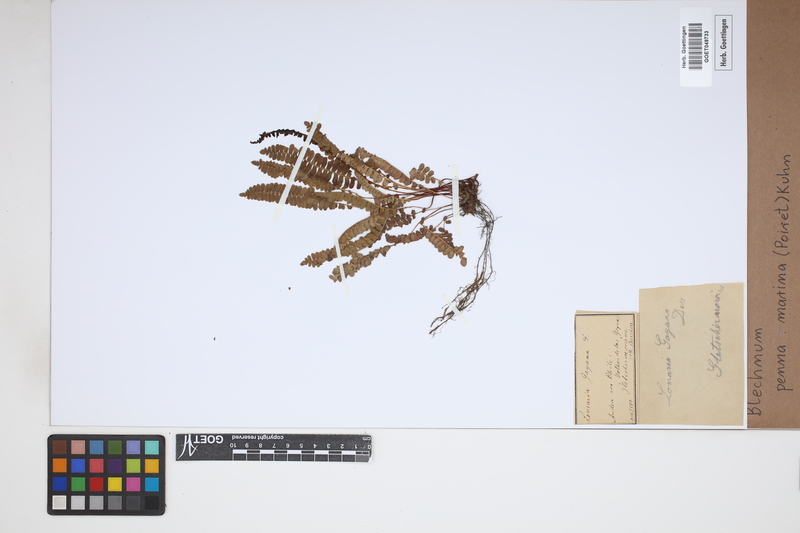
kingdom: Plantae
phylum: Tracheophyta
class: Polypodiopsida
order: Polypodiales
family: Blechnaceae
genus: Austroblechnum
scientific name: Austroblechnum penna-marina
